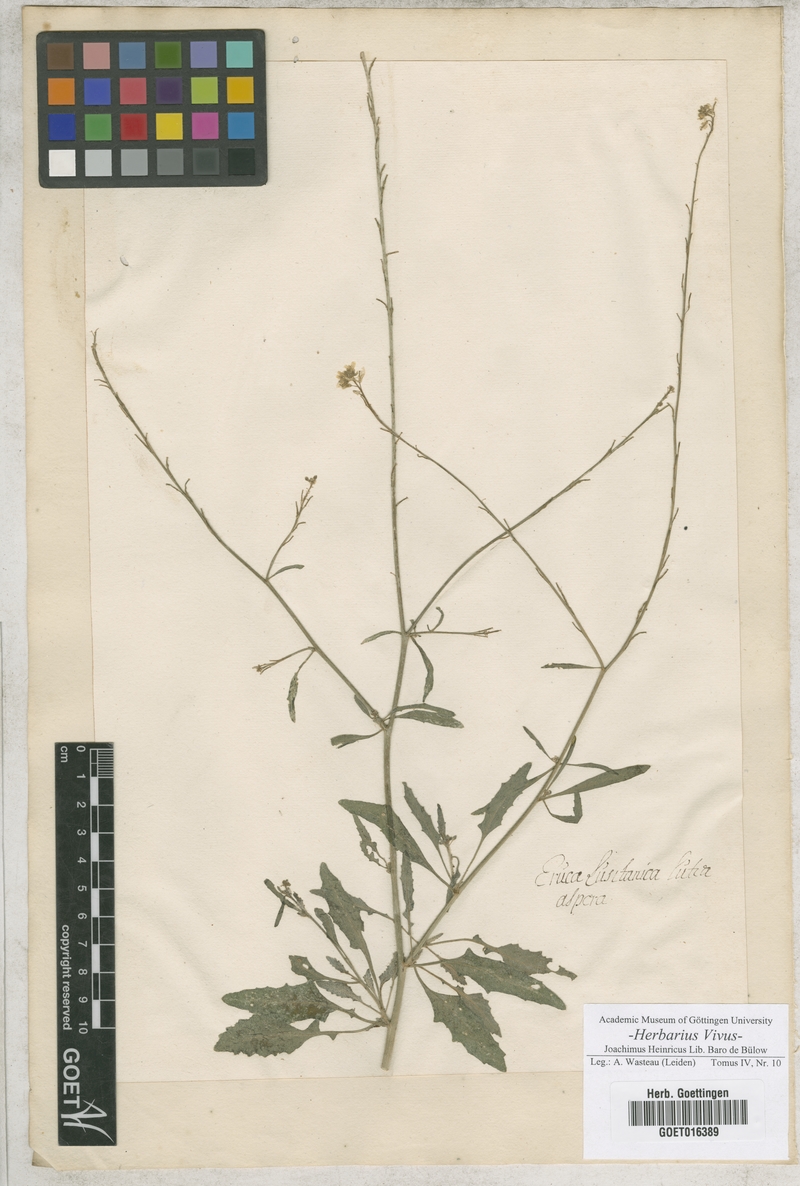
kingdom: Plantae
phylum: Tracheophyta
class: Magnoliopsida
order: Brassicales
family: Brassicaceae
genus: Eruca
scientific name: Eruca
